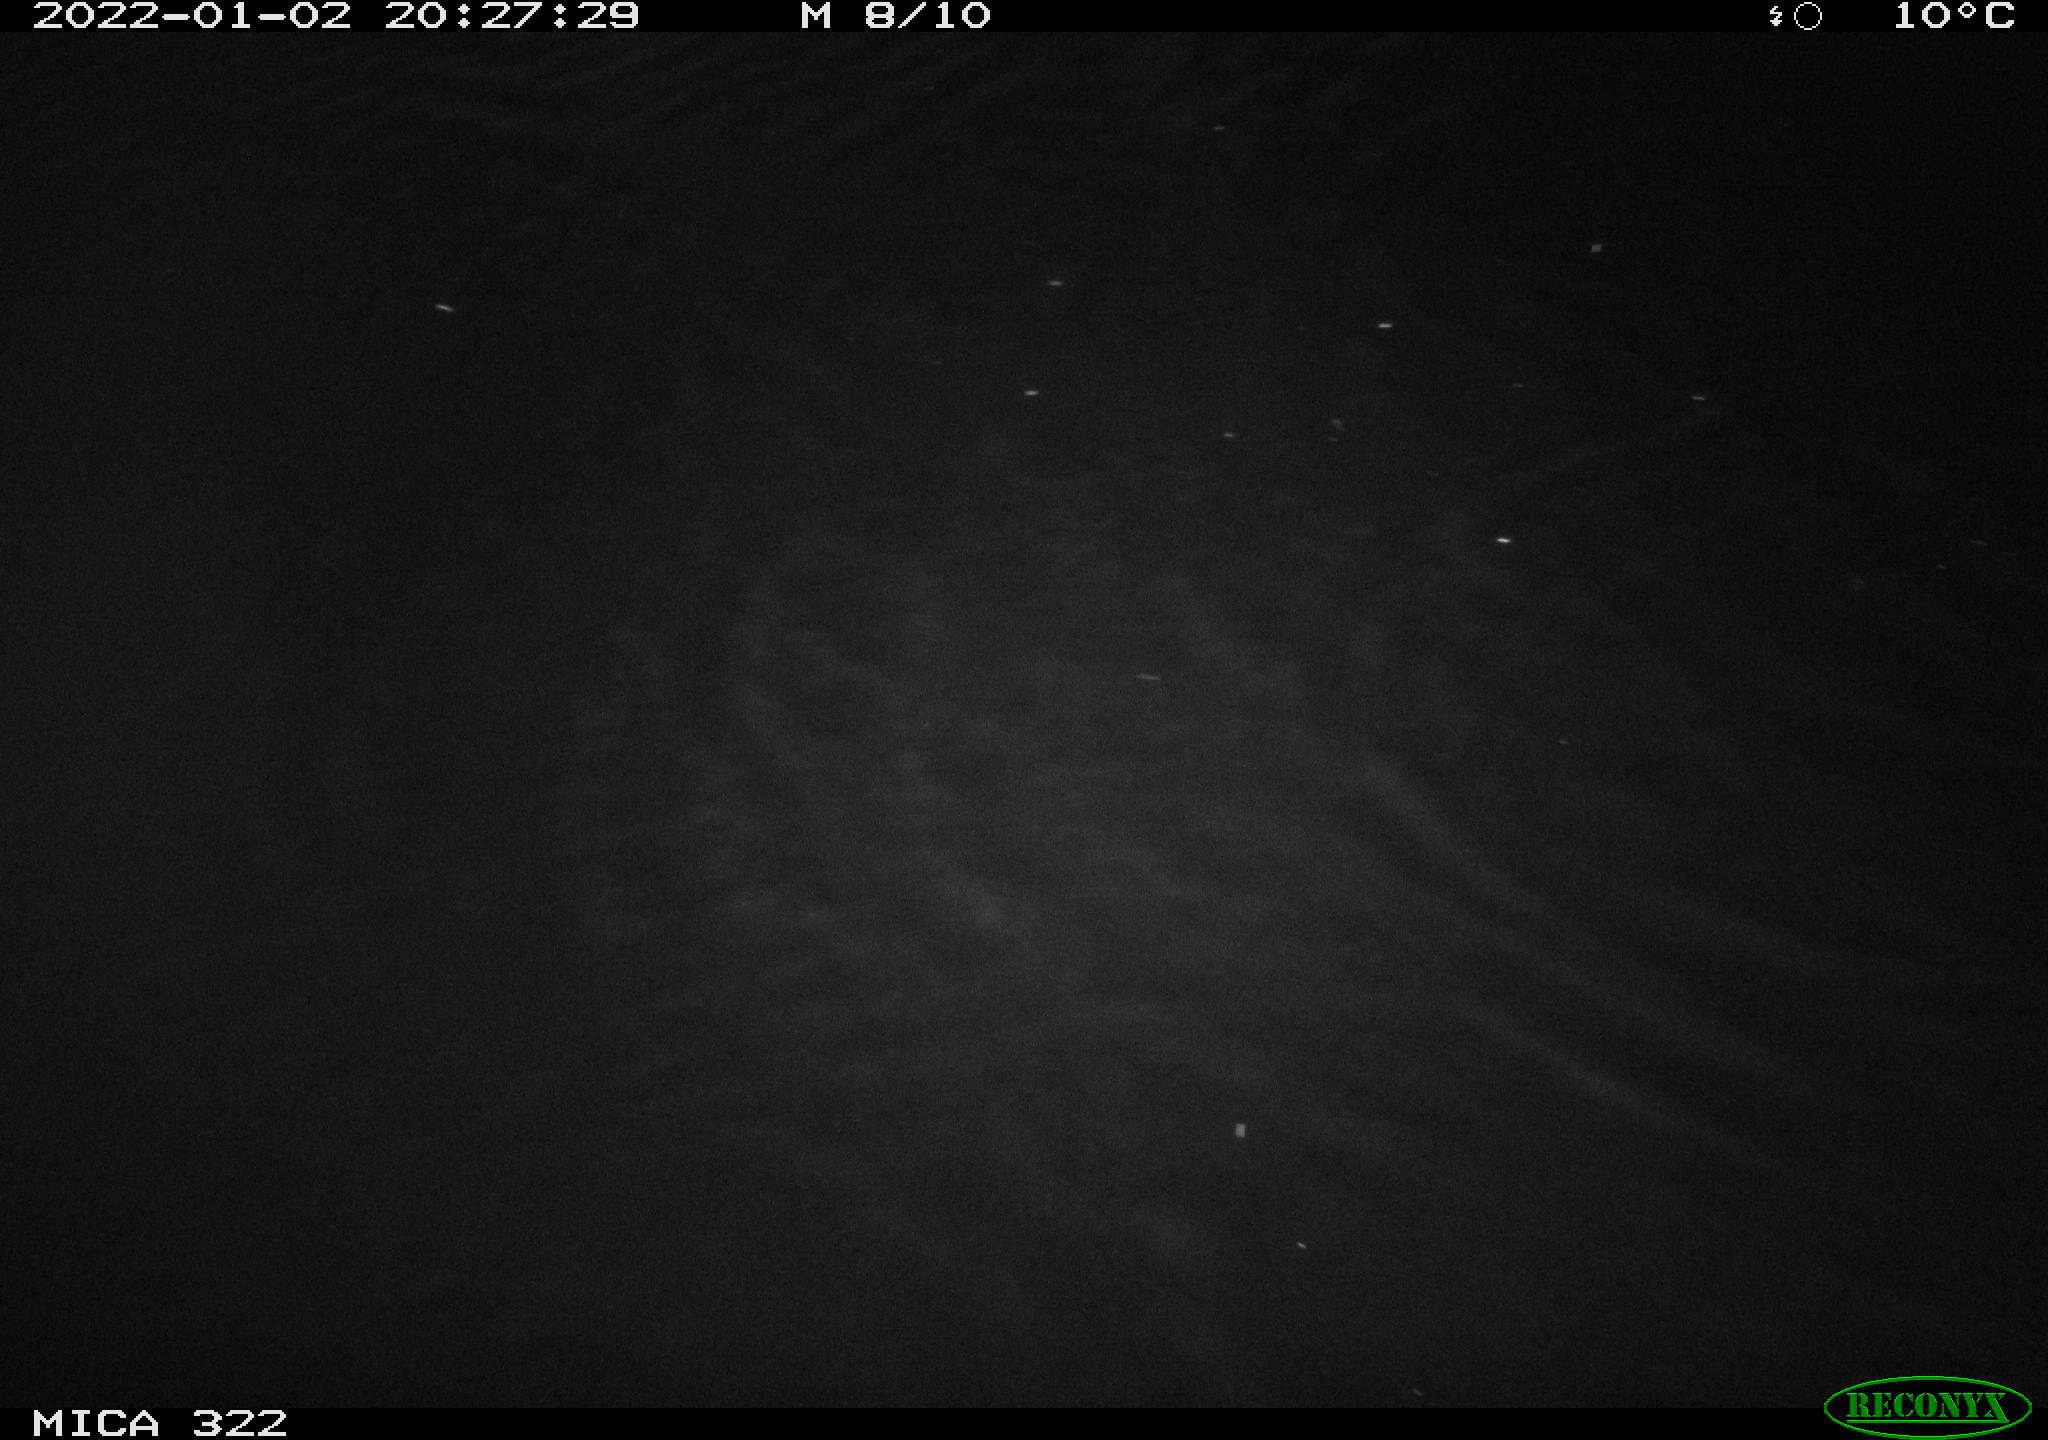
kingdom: Animalia
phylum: Chordata
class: Mammalia
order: Rodentia
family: Muridae
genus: Rattus
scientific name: Rattus norvegicus
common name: Brown rat
